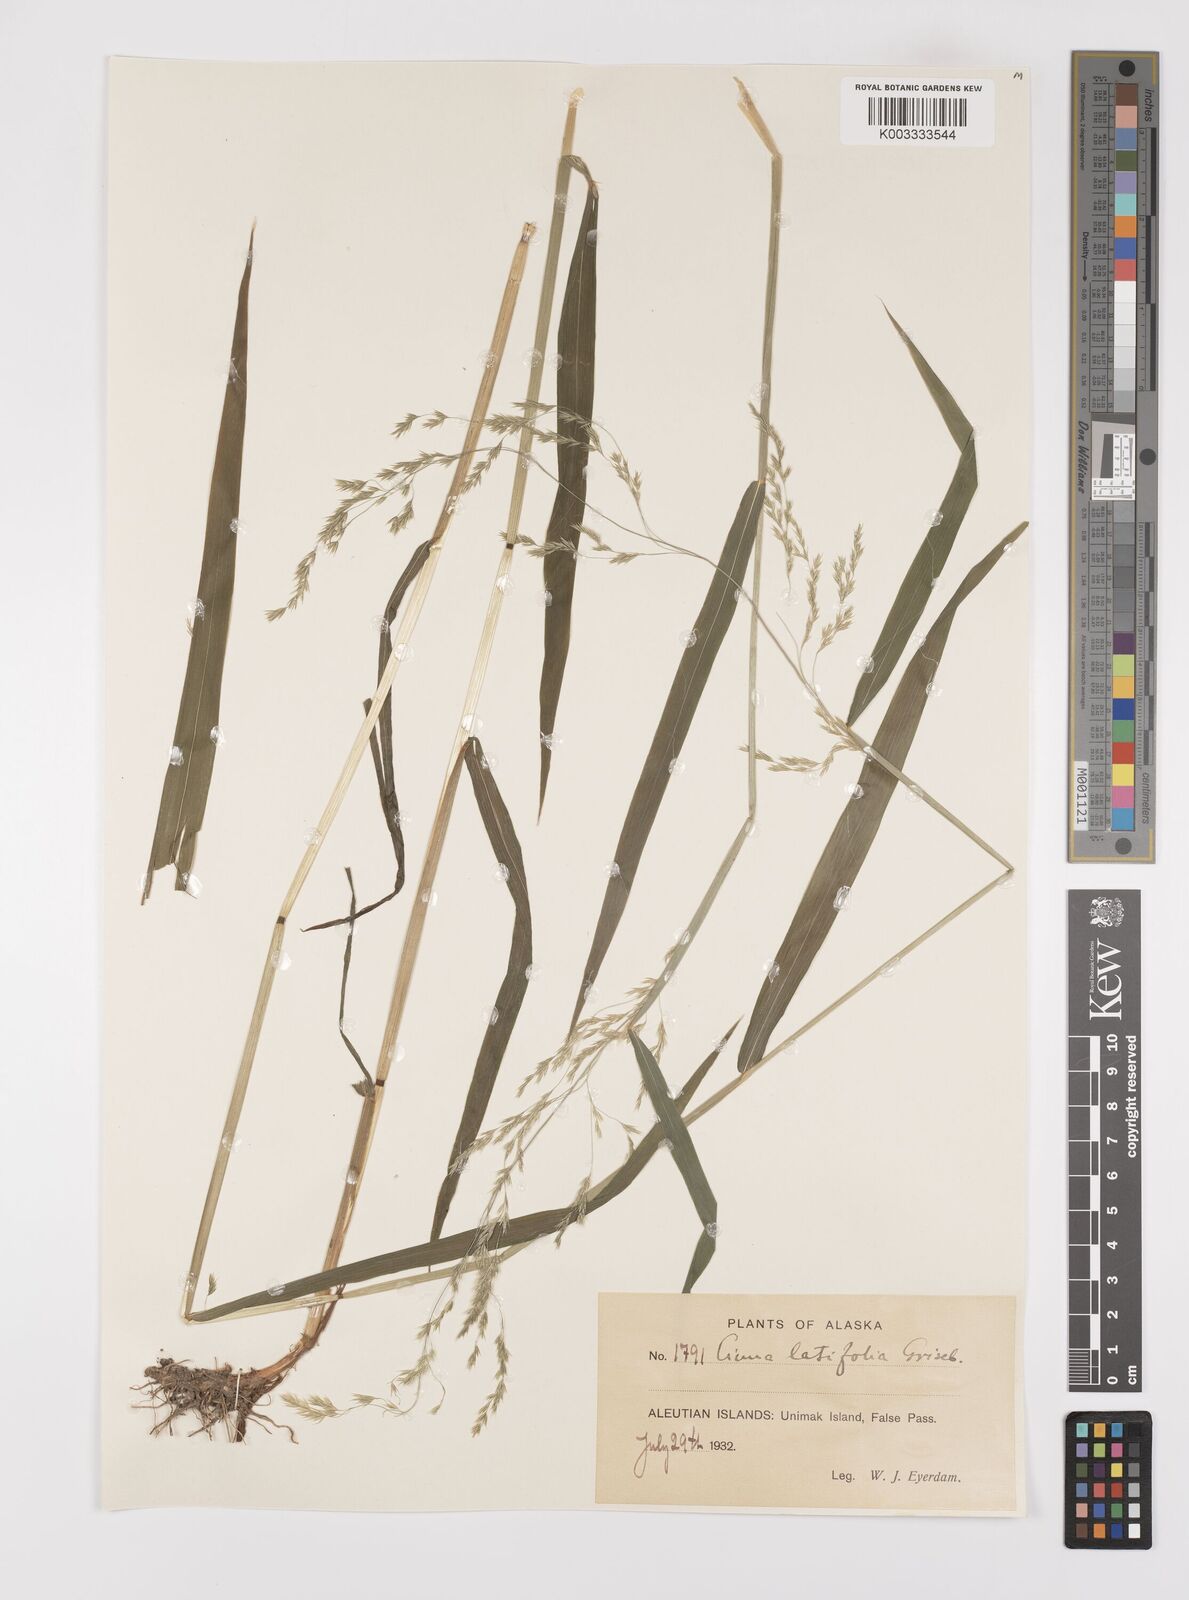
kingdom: Plantae
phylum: Tracheophyta
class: Liliopsida
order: Poales
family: Poaceae
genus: Cinna
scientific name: Cinna latifolia
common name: Drooping woodreed
